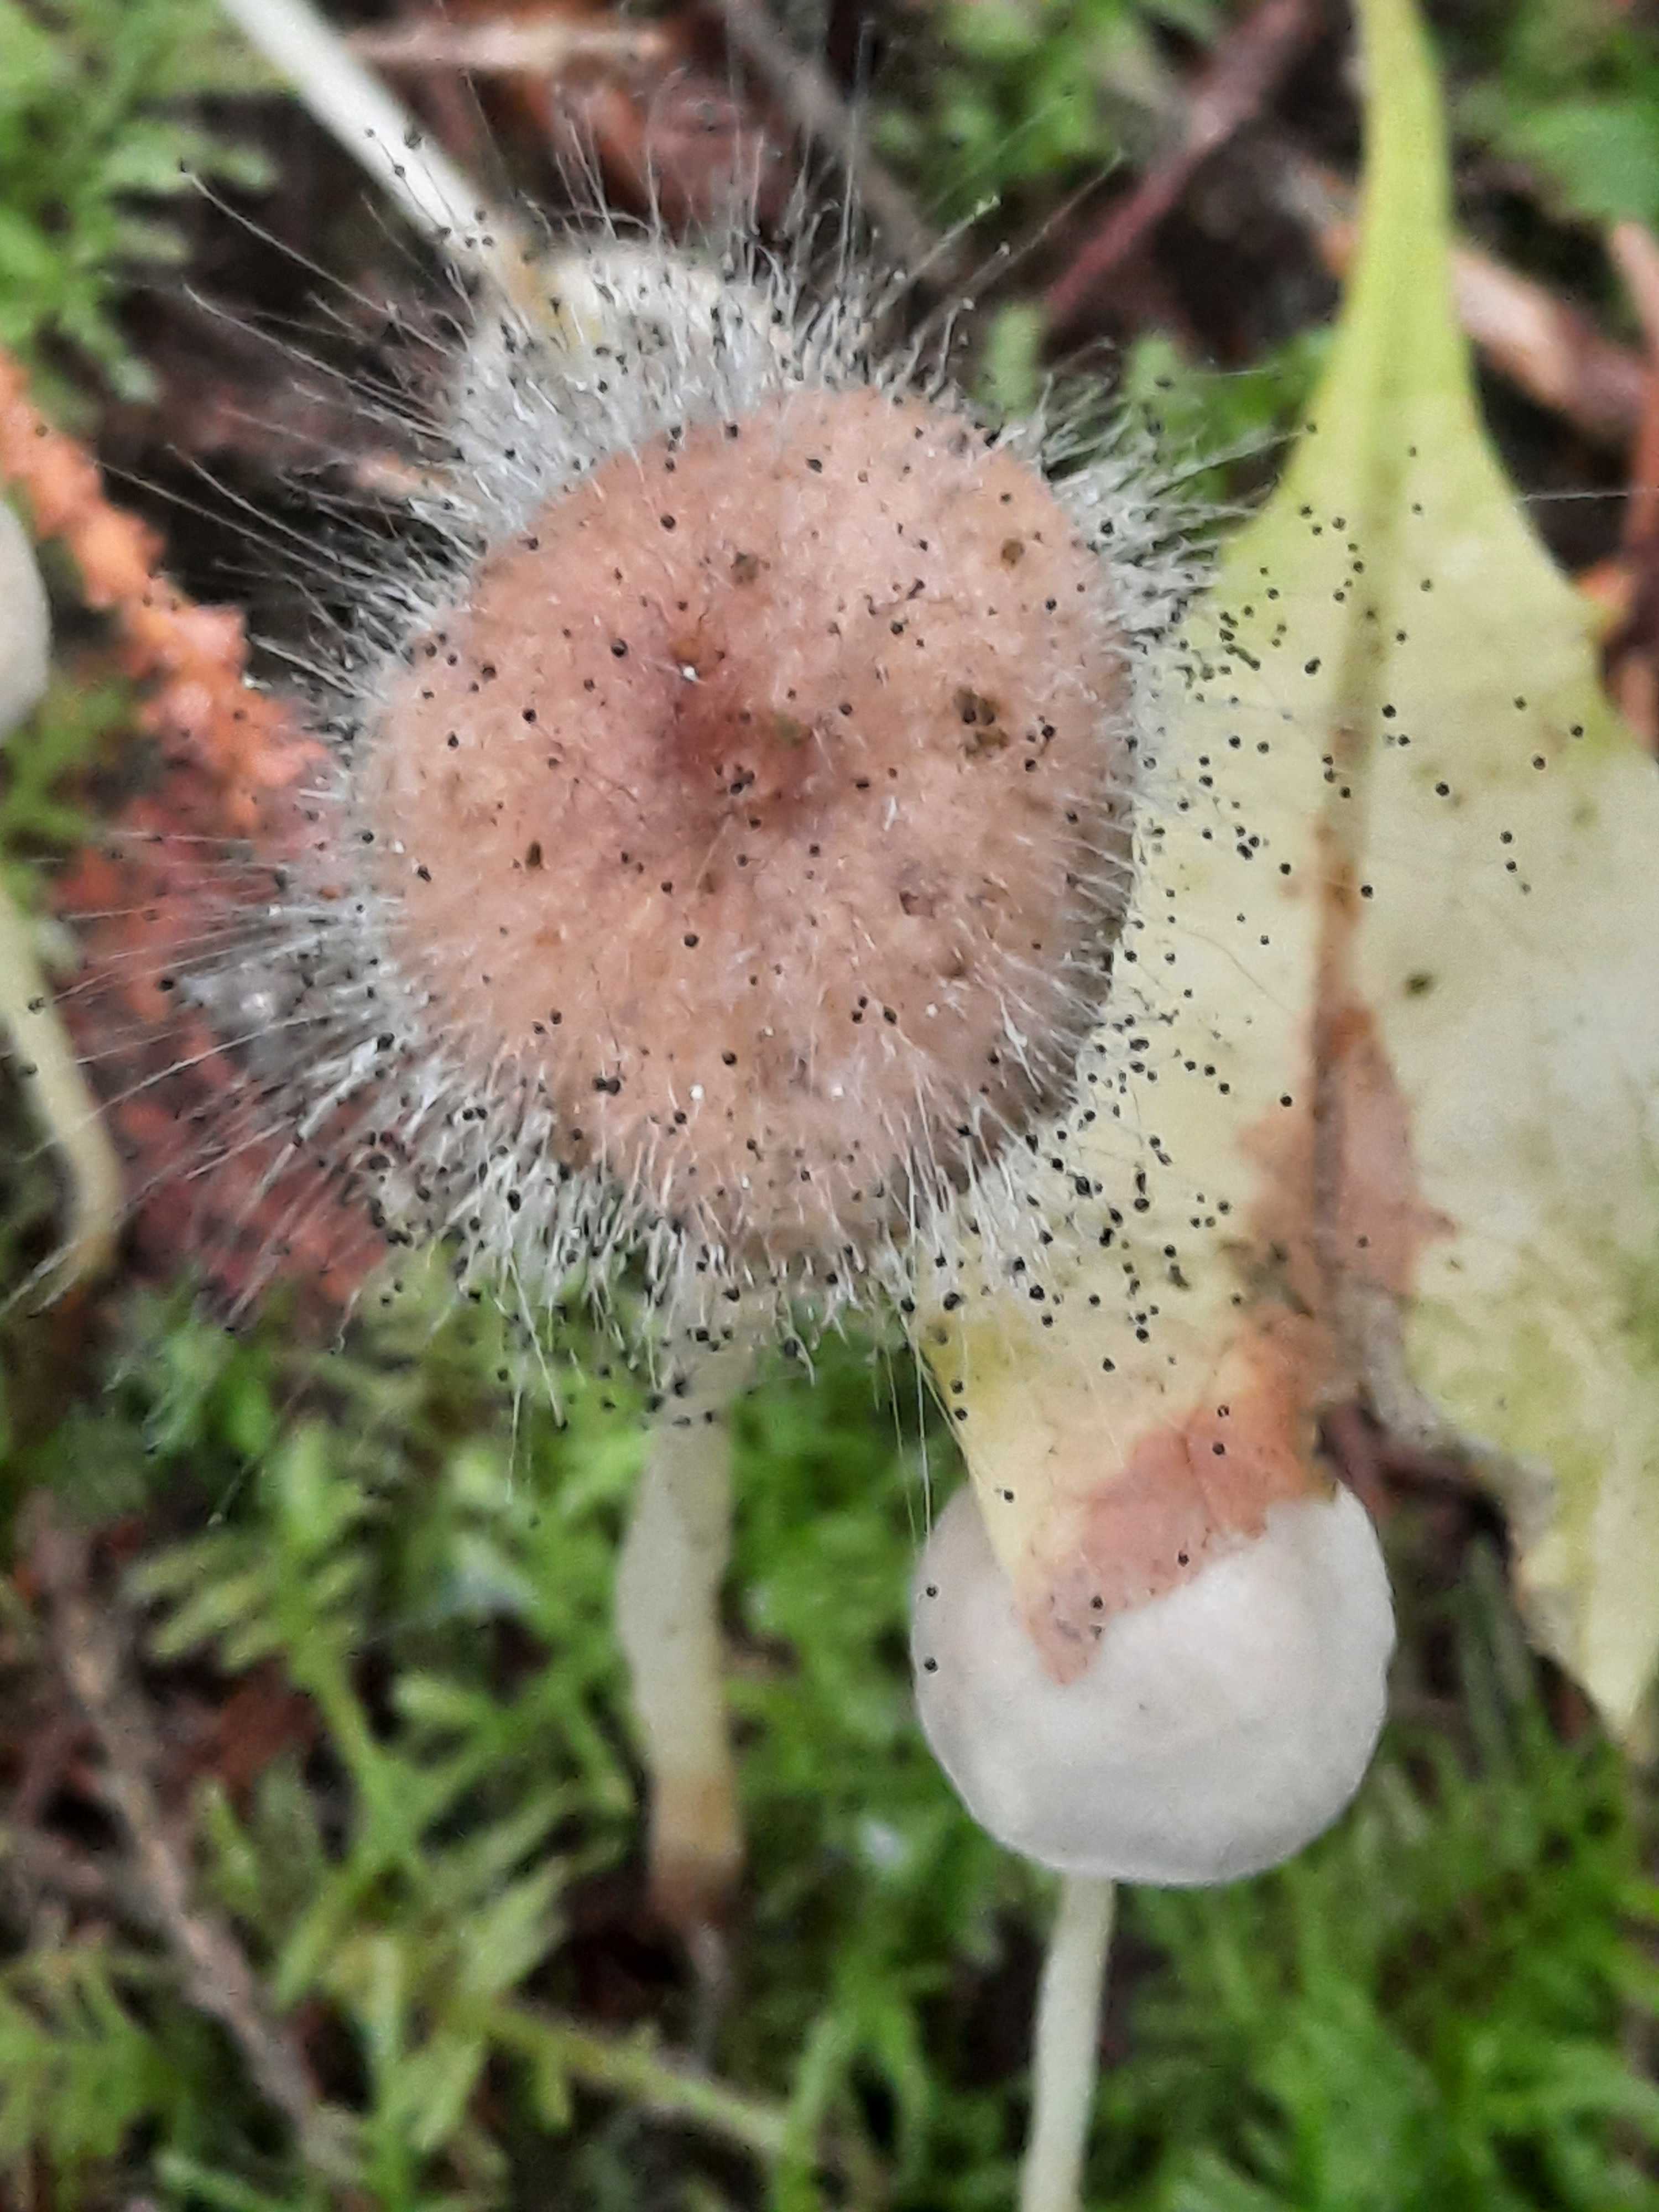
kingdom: Fungi
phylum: Mucoromycota
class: Mucoromycetes
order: Mucorales
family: Phycomycetaceae
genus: Spinellus
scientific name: Spinellus fusiger
